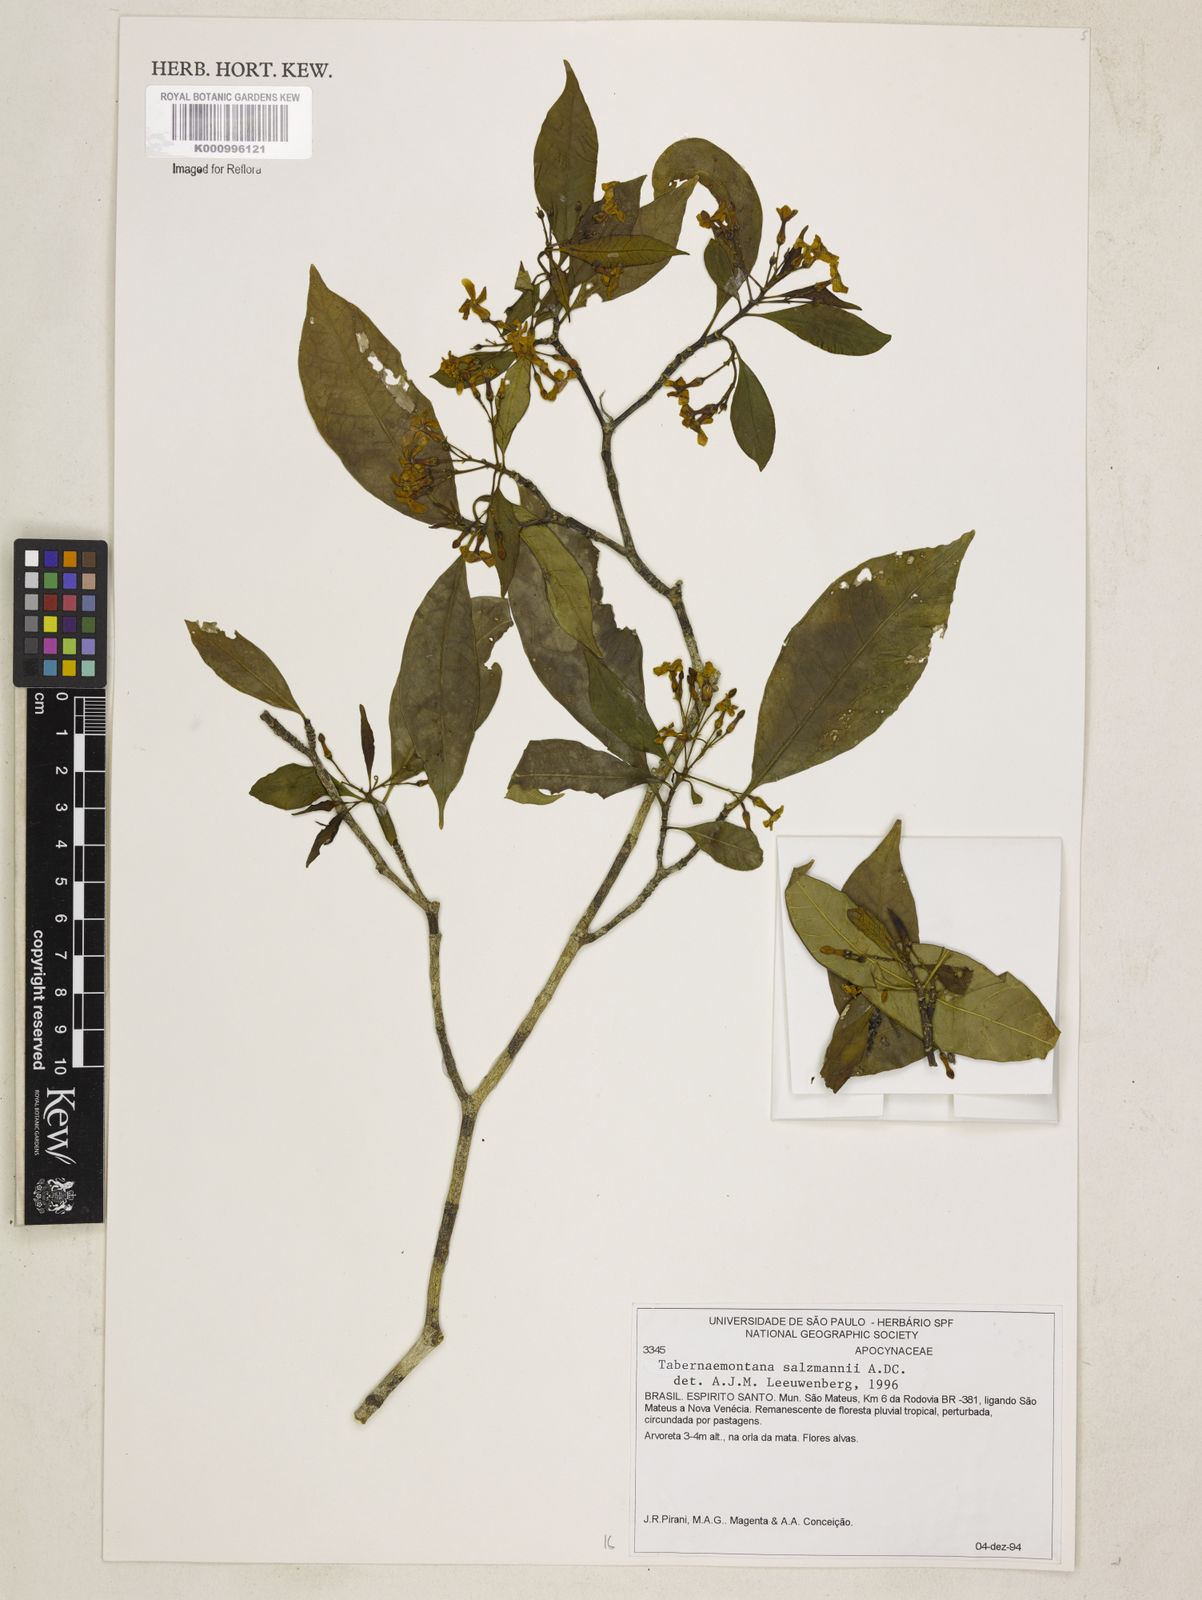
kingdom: Plantae
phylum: Tracheophyta
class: Magnoliopsida
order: Gentianales
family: Apocynaceae
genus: Tabernaemontana
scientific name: Tabernaemontana salzmannii
